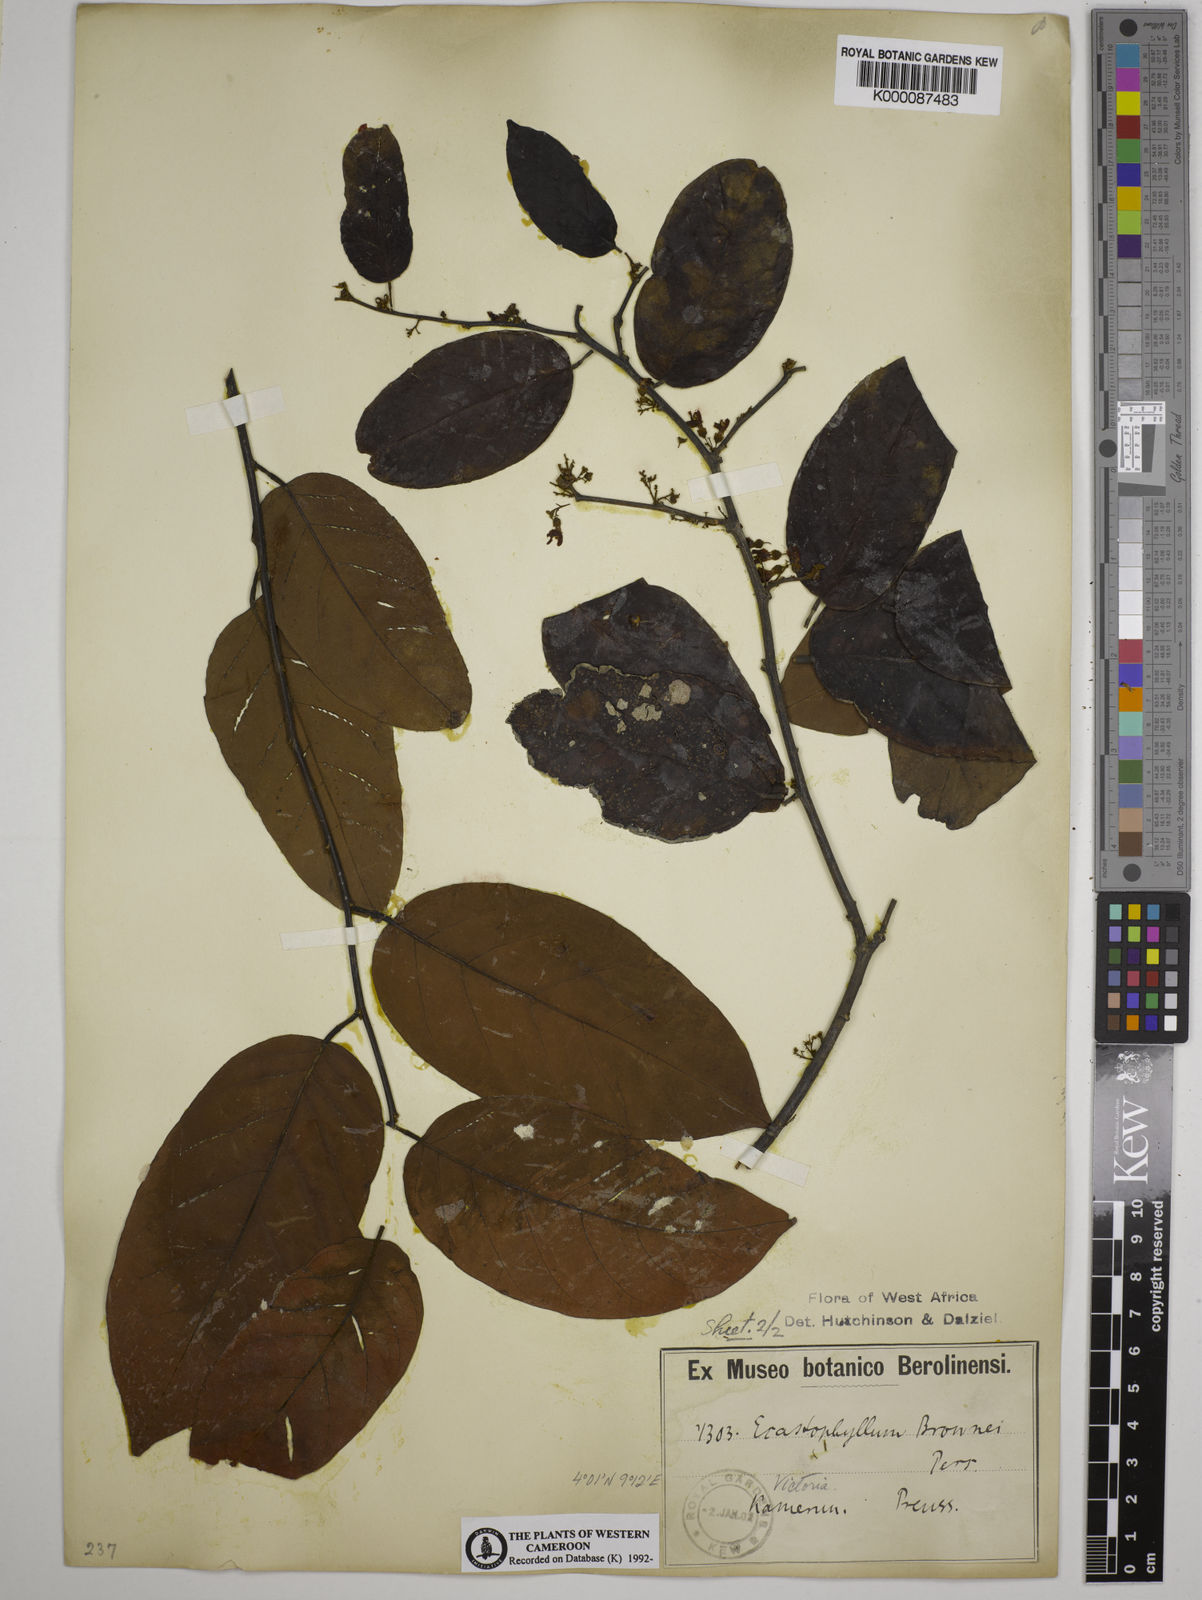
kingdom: Plantae
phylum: Tracheophyta
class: Magnoliopsida
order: Fabales
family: Fabaceae
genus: Dalbergia
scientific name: Dalbergia ecastaphyllum
